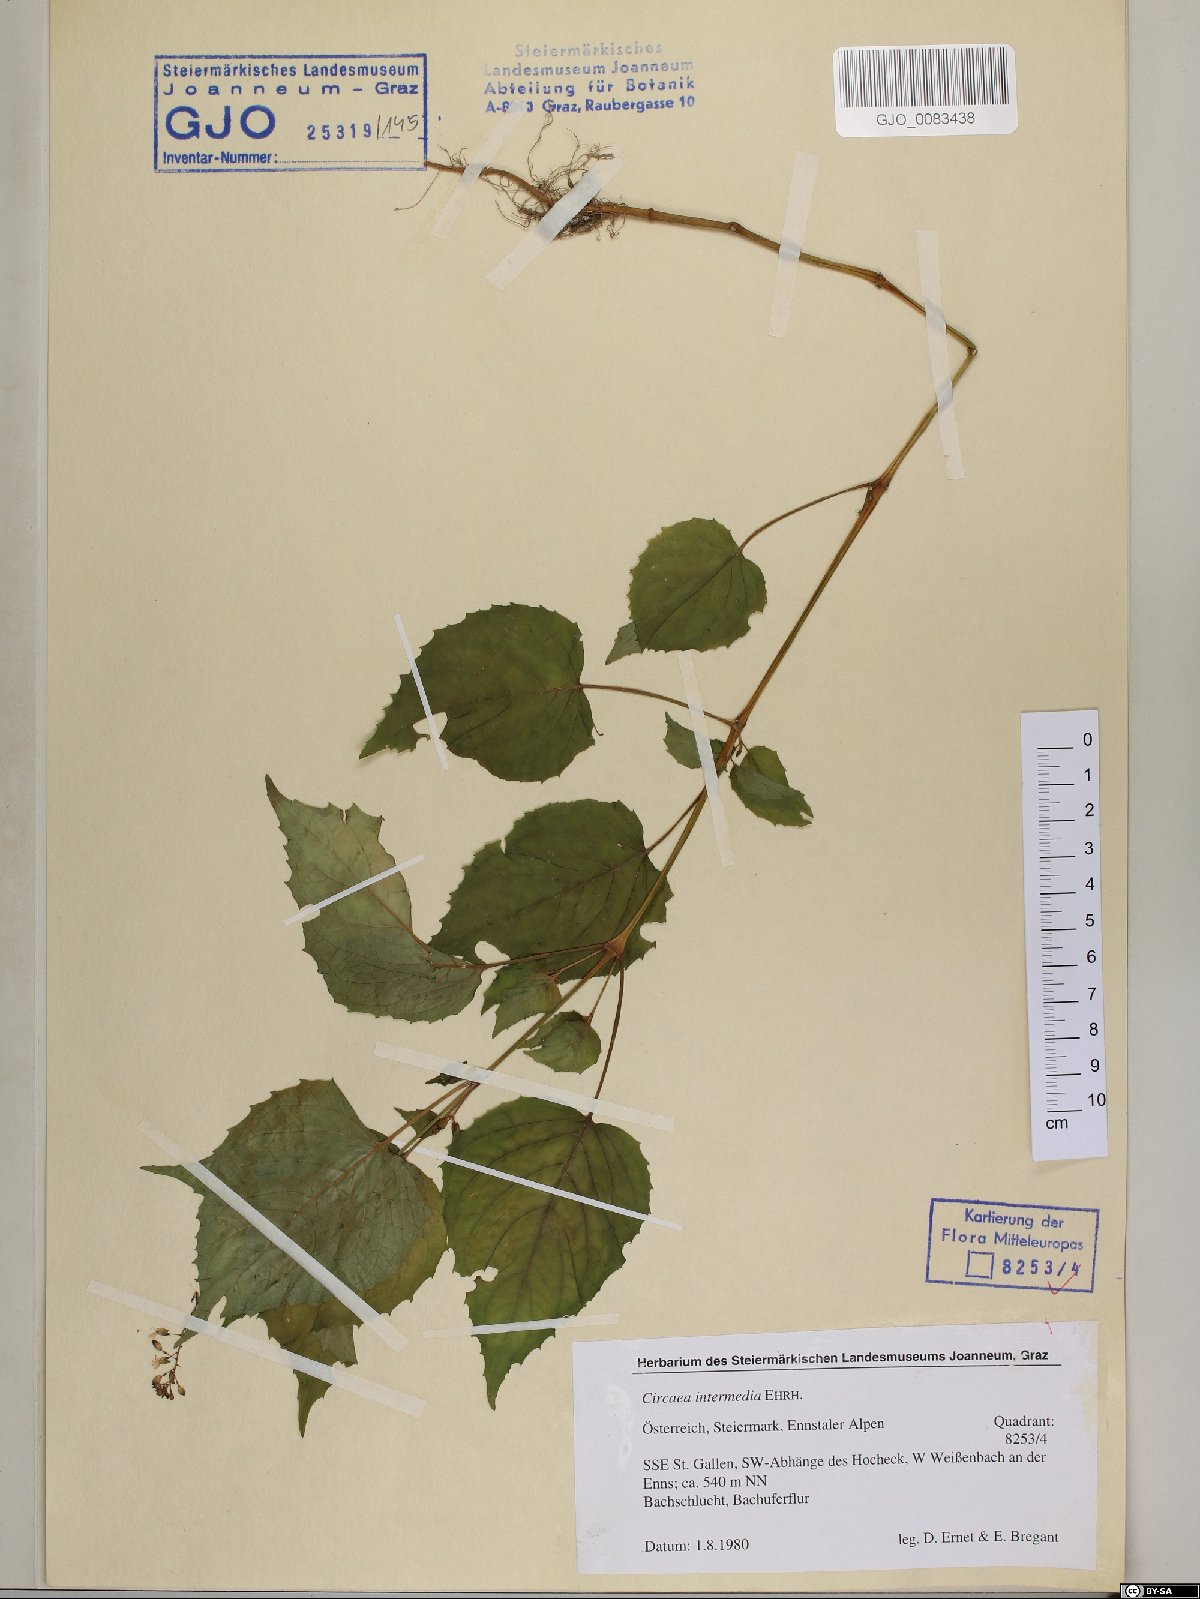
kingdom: Plantae
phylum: Tracheophyta
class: Magnoliopsida
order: Myrtales
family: Onagraceae
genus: Circaea
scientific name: Circaea intermedia
